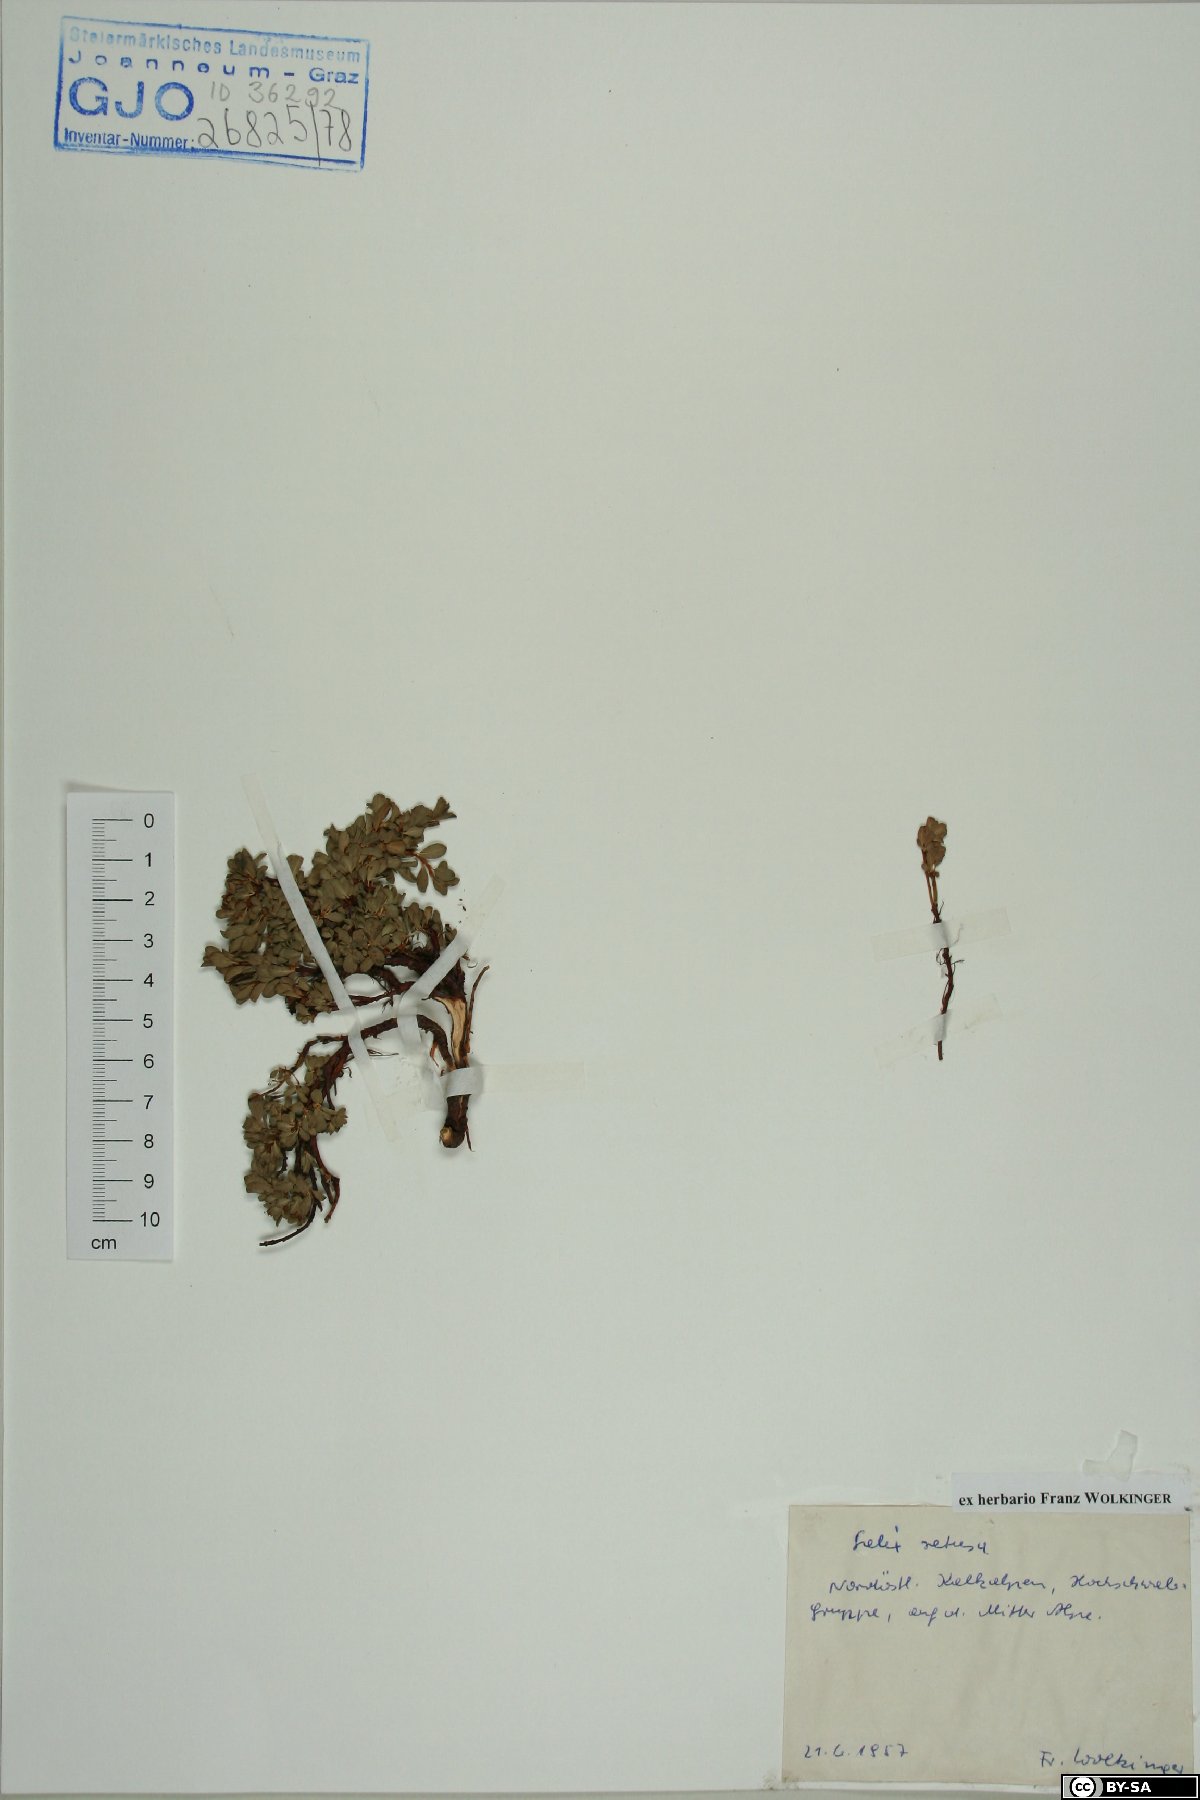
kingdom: Plantae
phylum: Tracheophyta
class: Magnoliopsida
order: Malpighiales
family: Salicaceae
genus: Salix
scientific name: Salix retusa
